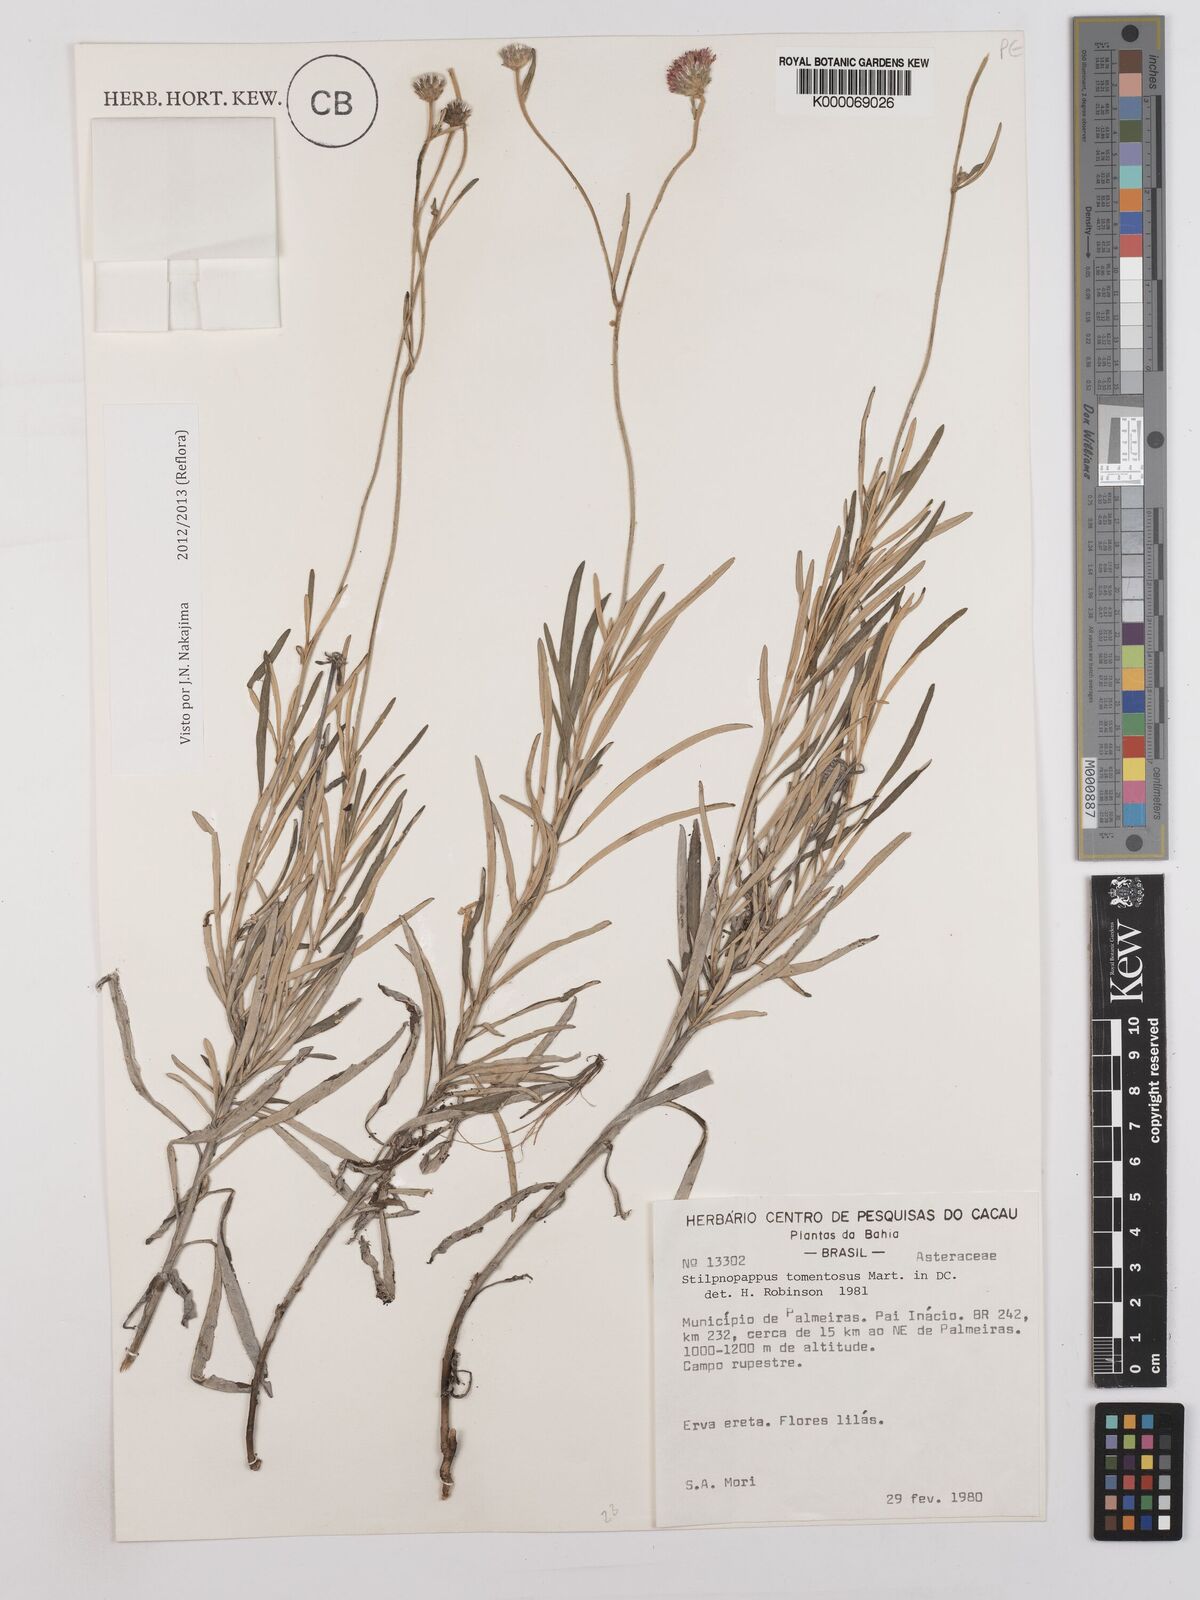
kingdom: Plantae
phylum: Tracheophyta
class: Magnoliopsida
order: Asterales
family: Asteraceae
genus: Stilpnopappus
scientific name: Stilpnopappus tomentosus
